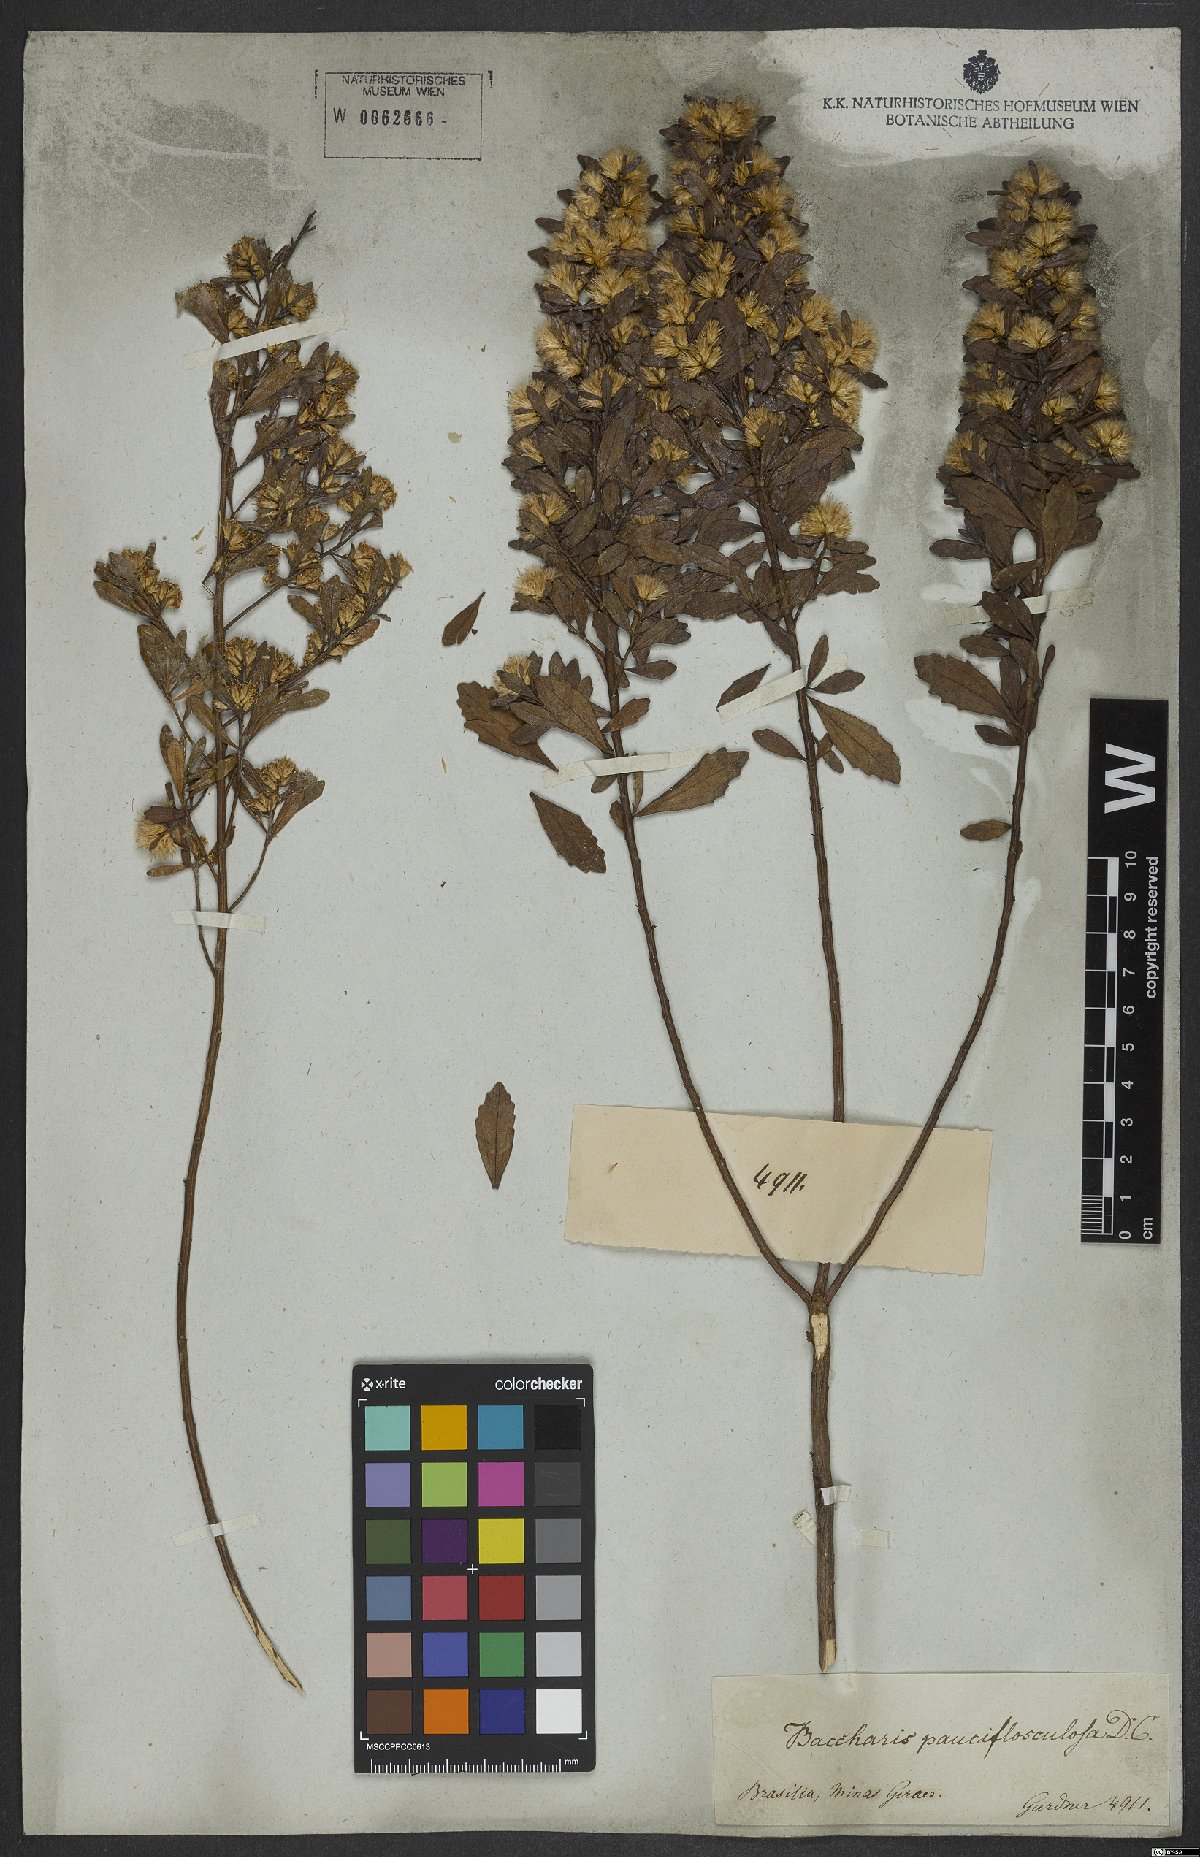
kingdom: Plantae
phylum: Tracheophyta
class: Magnoliopsida
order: Asterales
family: Asteraceae
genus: Baccharis
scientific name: Baccharis pauciflosculosa
